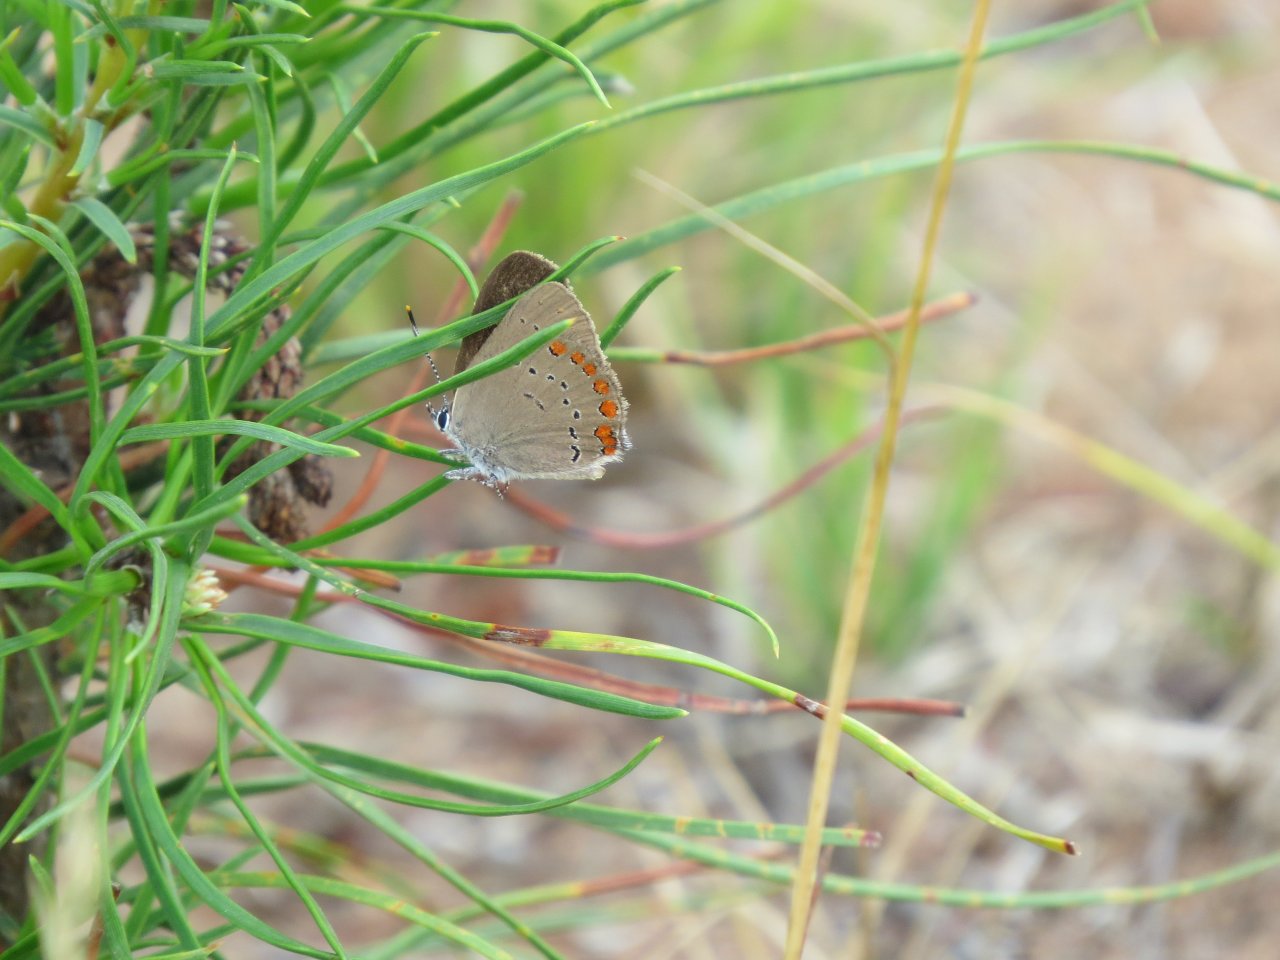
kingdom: Animalia
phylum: Arthropoda
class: Insecta
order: Lepidoptera
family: Lycaenidae
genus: Harkenclenus
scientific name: Harkenclenus titus
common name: Coral Hairstreak
